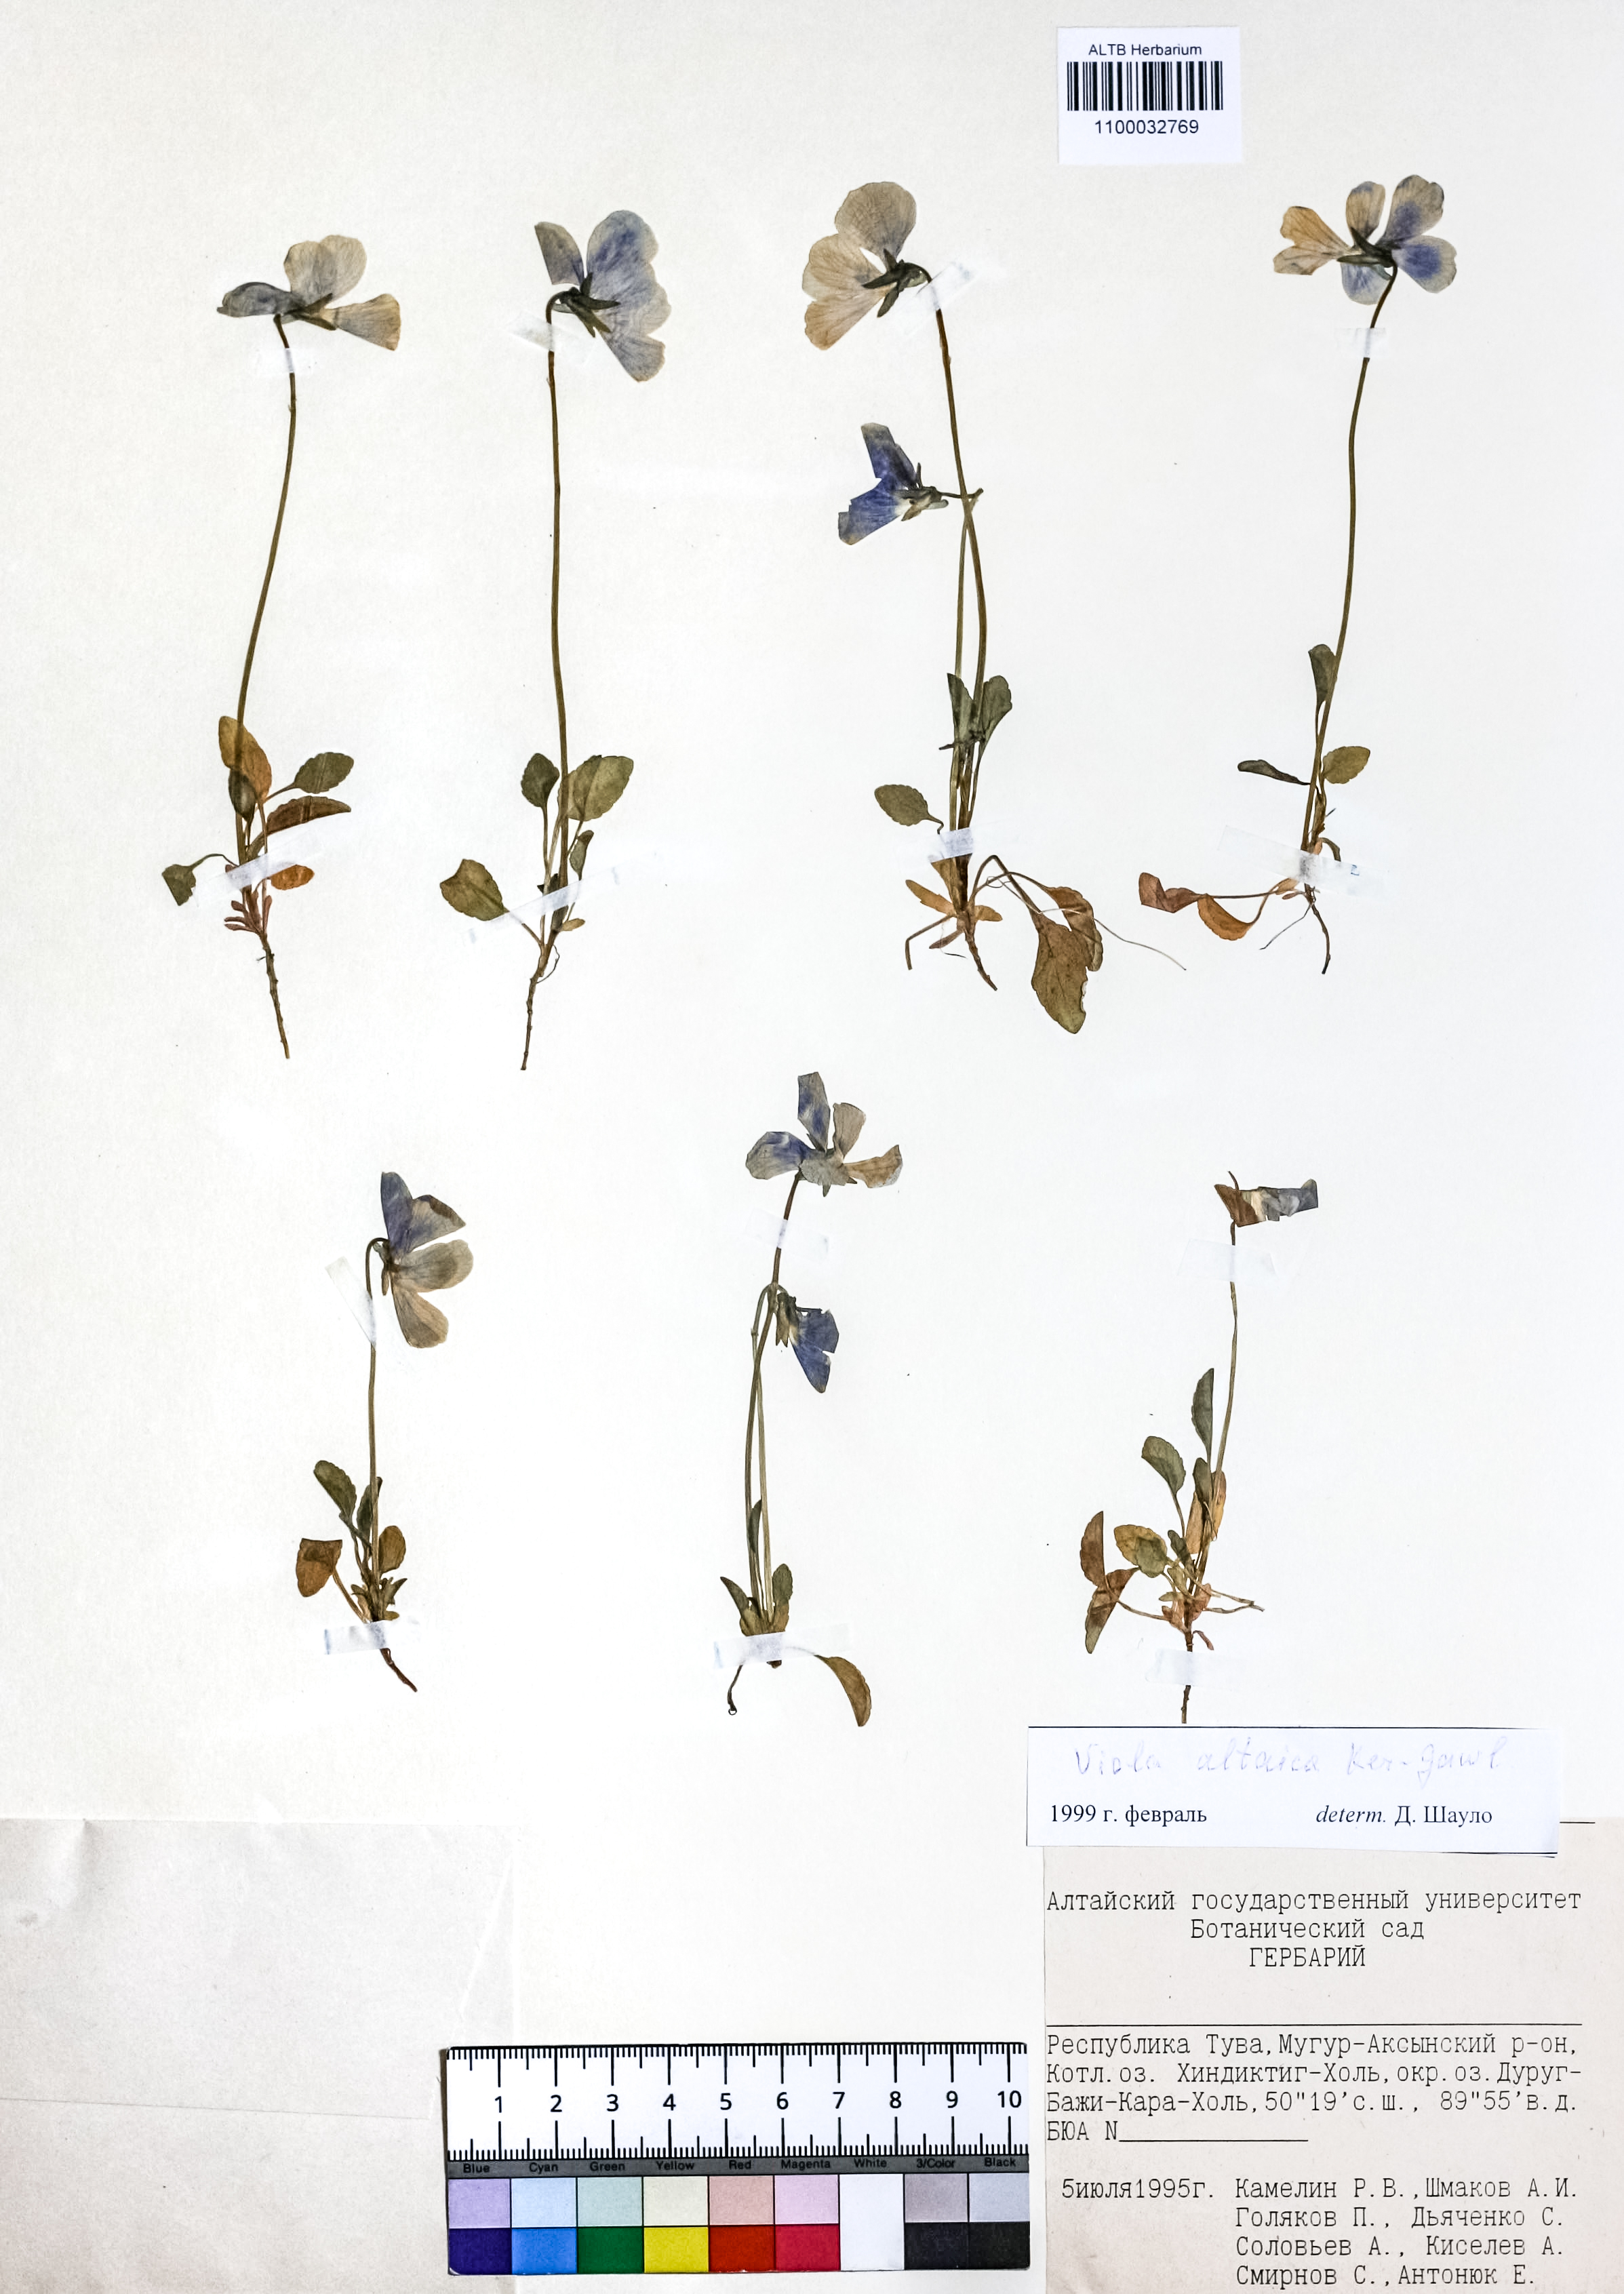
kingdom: Plantae
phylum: Tracheophyta
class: Magnoliopsida
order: Malpighiales
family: Violaceae
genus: Viola
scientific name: Viola altaica
